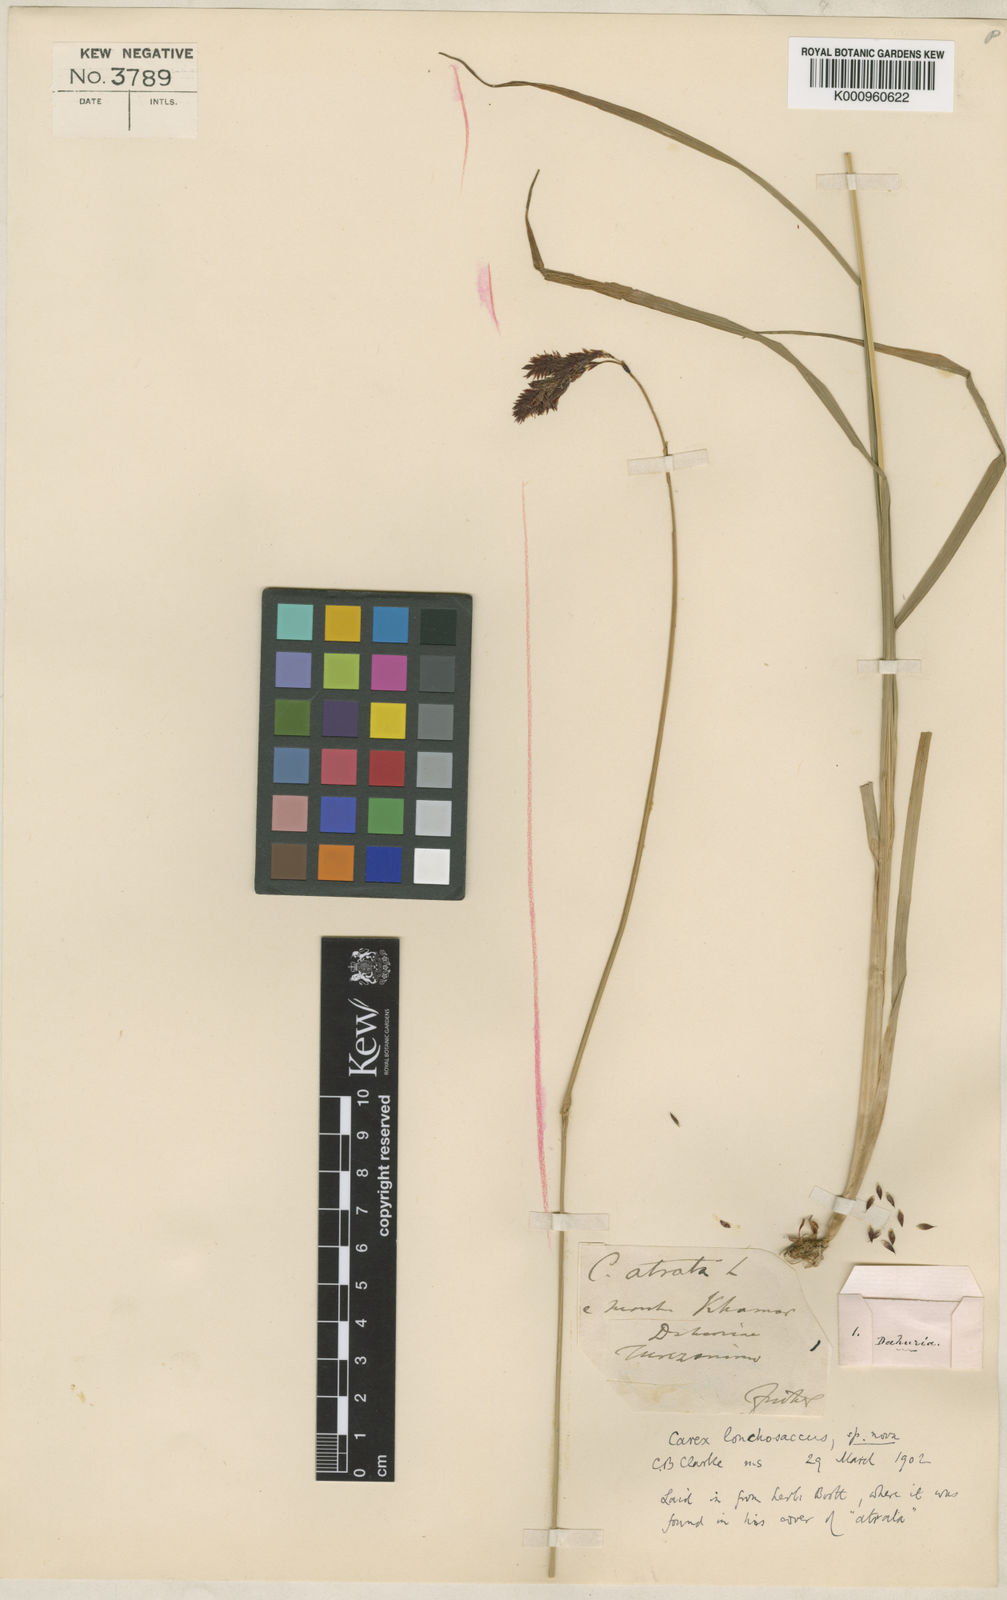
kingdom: Plantae
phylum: Tracheophyta
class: Liliopsida
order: Poales
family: Cyperaceae
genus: Carex
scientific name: Carex lonchosacca
